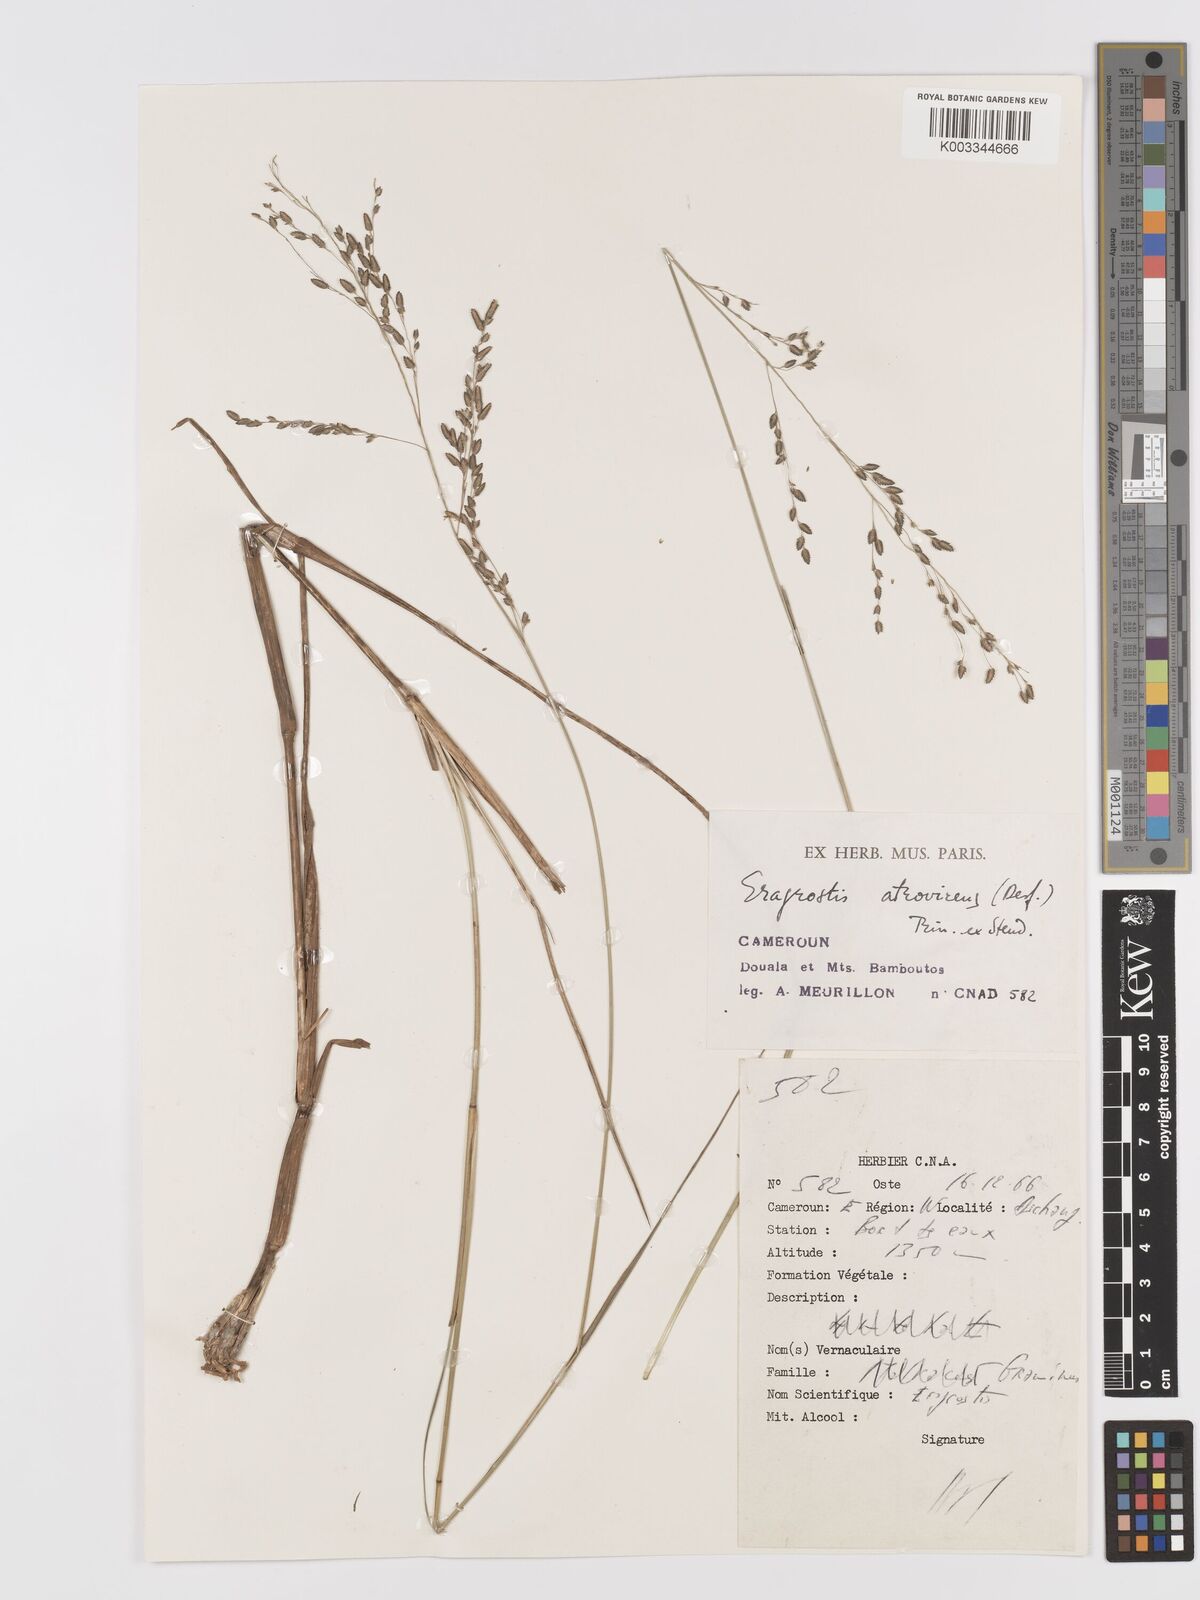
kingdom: Plantae
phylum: Tracheophyta
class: Liliopsida
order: Poales
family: Poaceae
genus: Eragrostis
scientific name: Eragrostis atrovirens
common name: Thalia lovegrass
